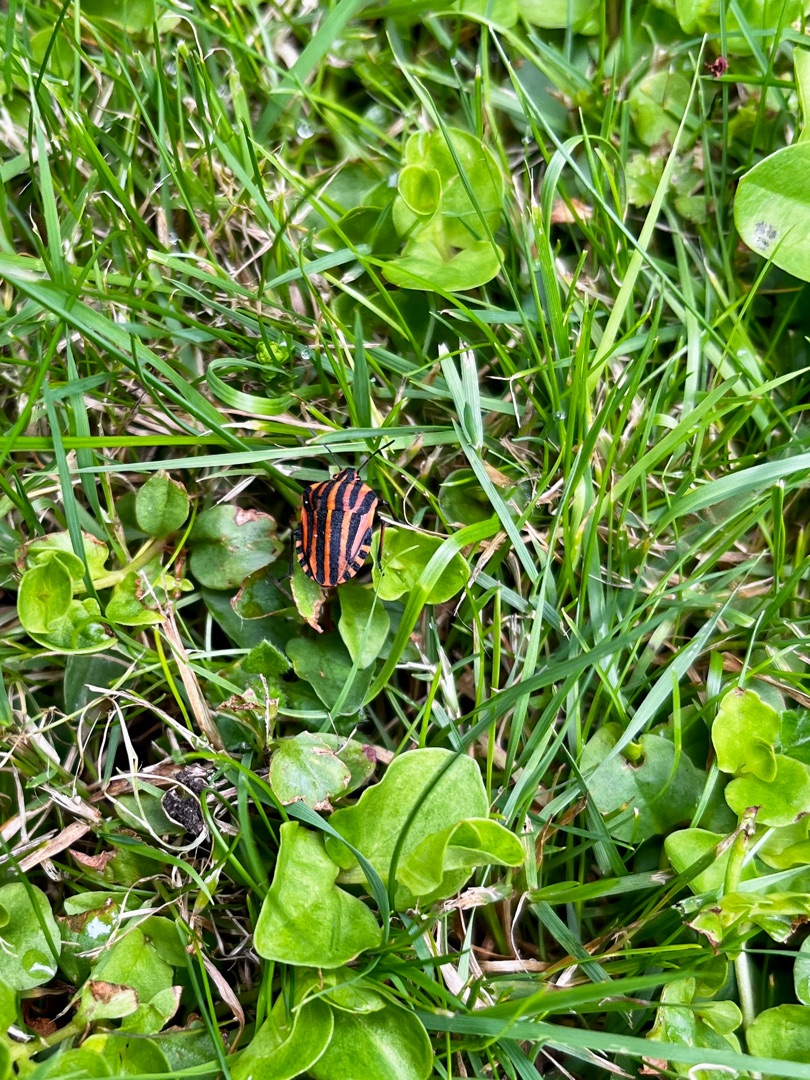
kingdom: Animalia
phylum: Arthropoda
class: Insecta
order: Hemiptera
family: Pentatomidae
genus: Graphosoma
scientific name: Graphosoma italicum
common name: Stribetæge
